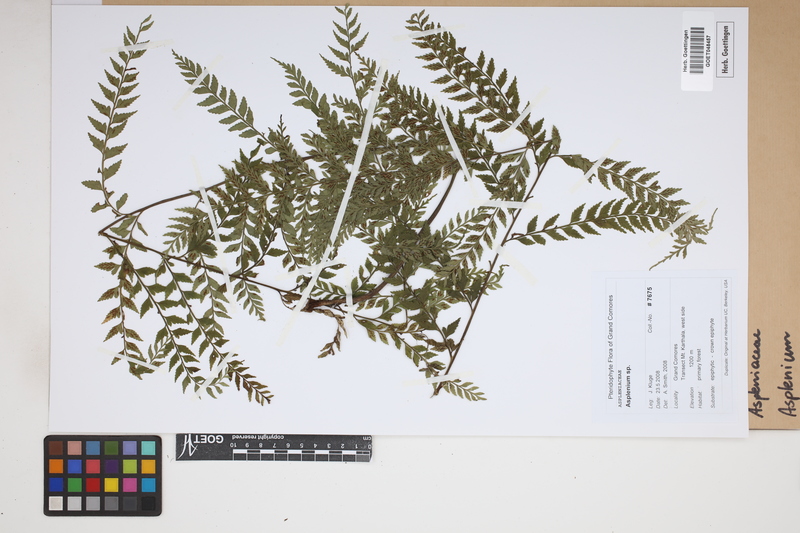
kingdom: Plantae
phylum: Tracheophyta
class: Polypodiopsida
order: Polypodiales
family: Aspleniaceae
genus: Asplenium
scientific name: Asplenium
